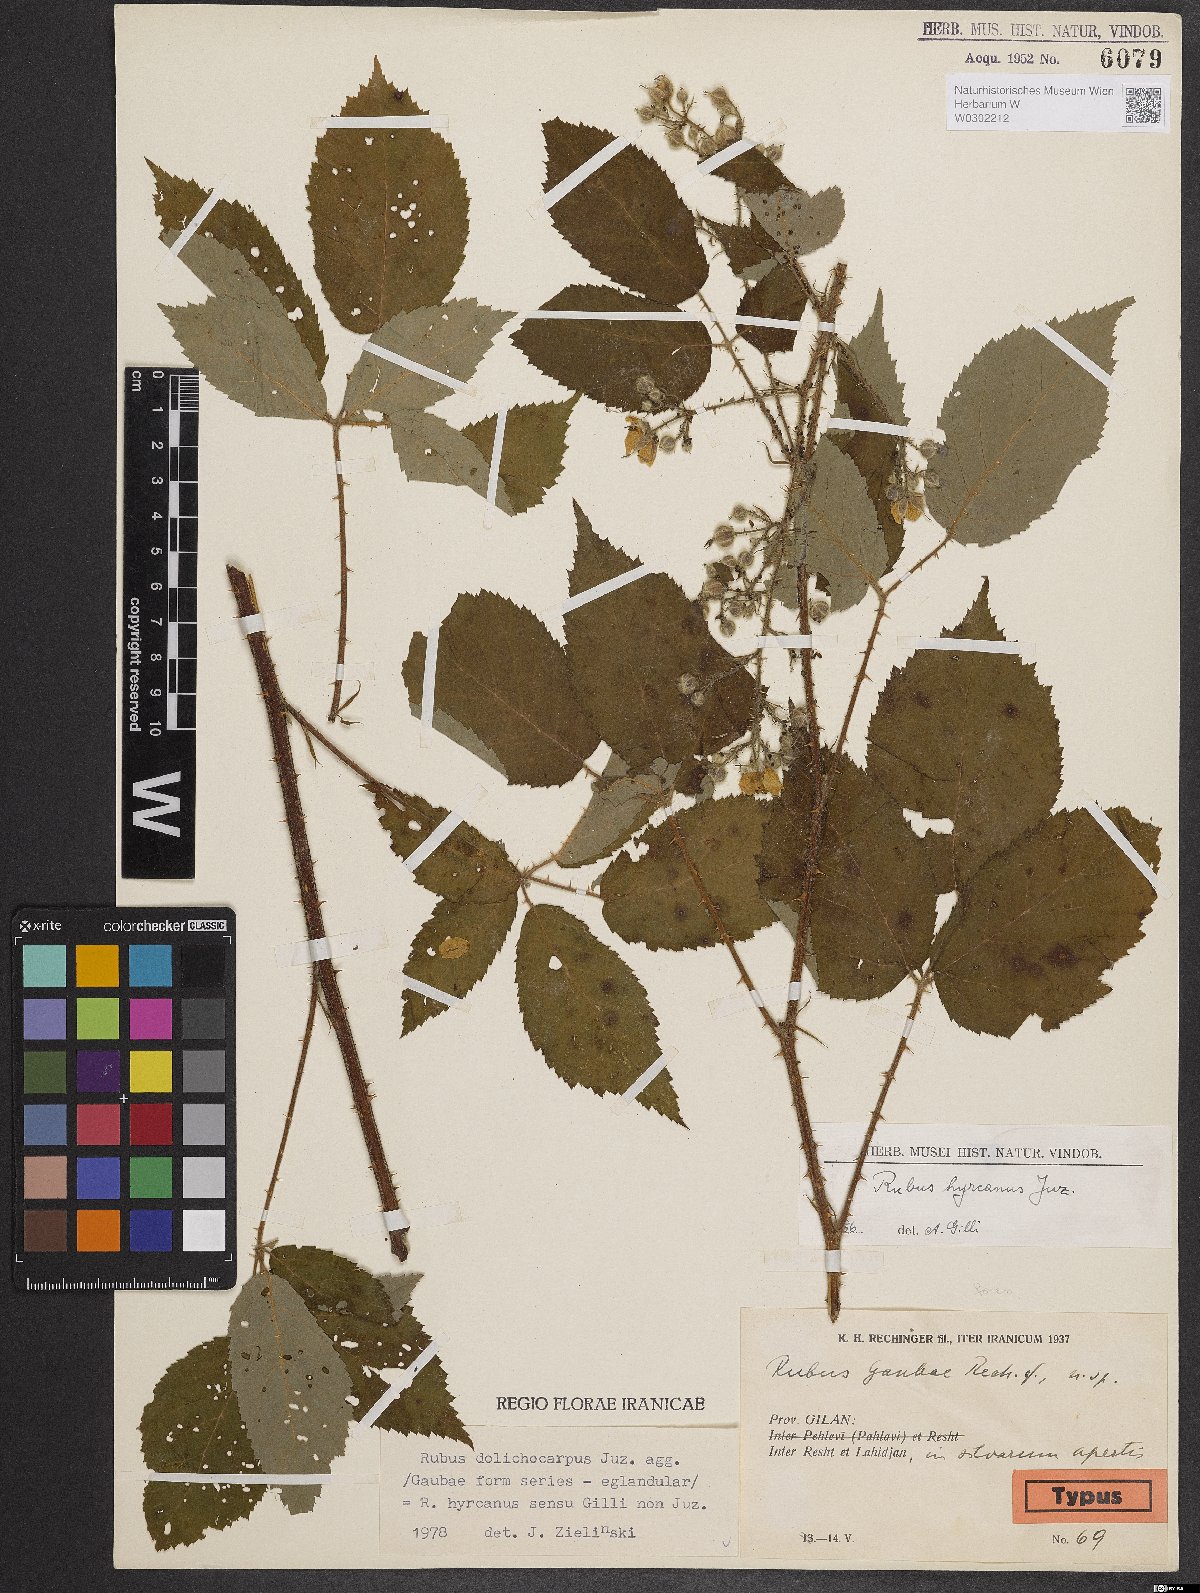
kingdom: Plantae
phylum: Tracheophyta
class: Magnoliopsida
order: Rosales
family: Rosaceae
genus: Rubus
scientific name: Rubus gaubae
